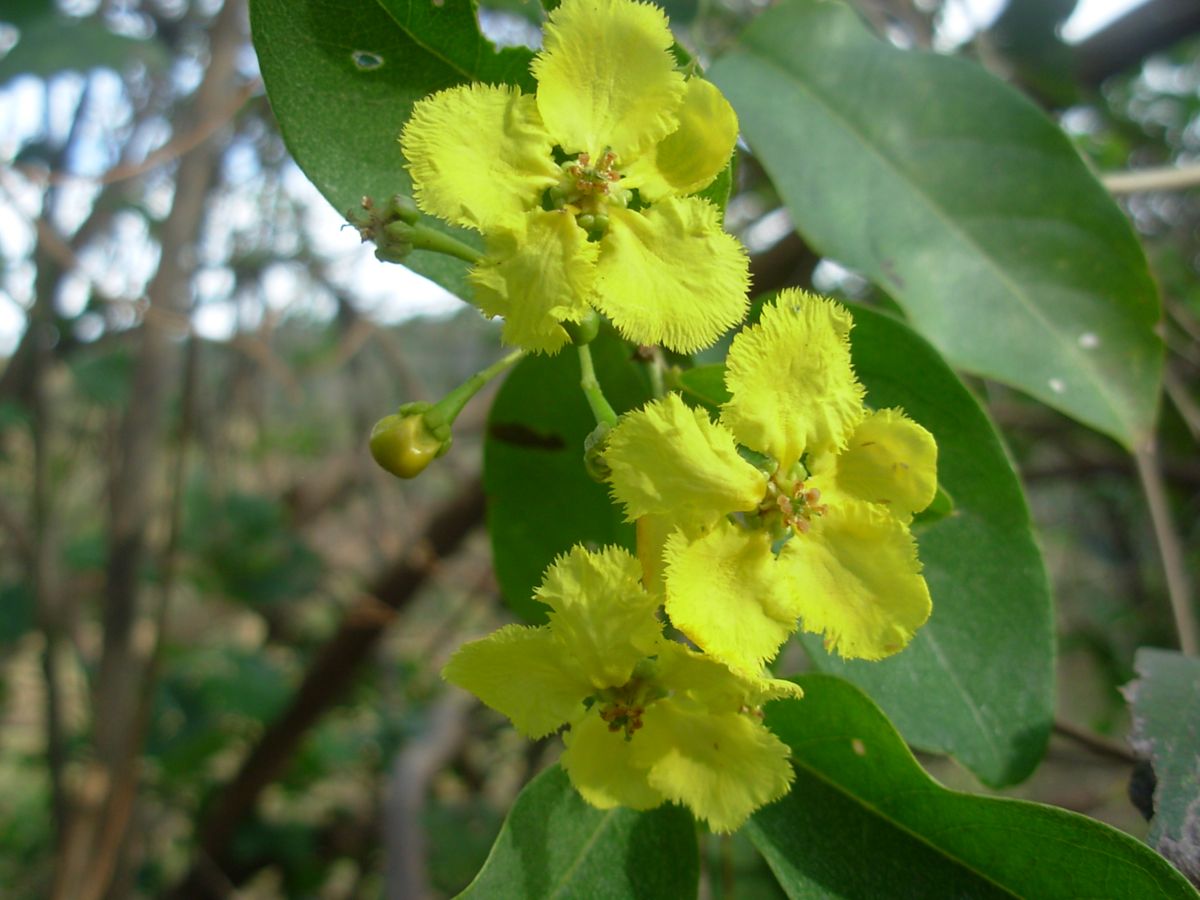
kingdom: Plantae
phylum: Tracheophyta
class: Magnoliopsida
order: Malpighiales
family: Malpighiaceae
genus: Stigmaphyllon
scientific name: Stigmaphyllon ellipticum
